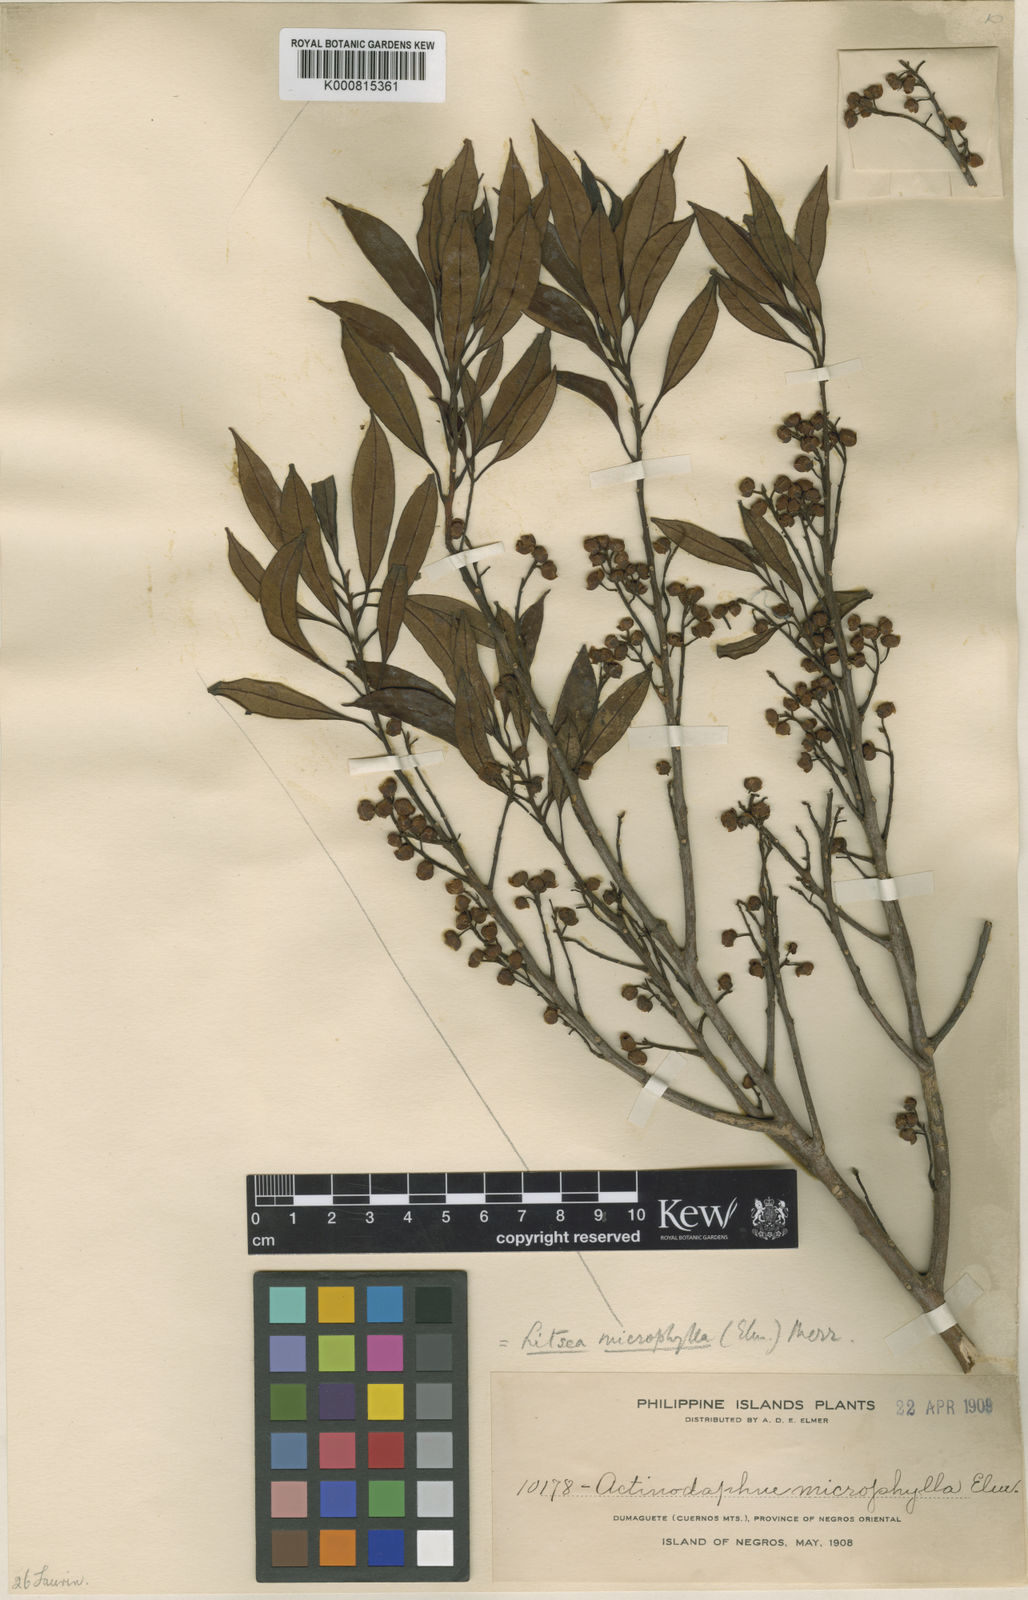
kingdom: Plantae
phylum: Tracheophyta
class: Magnoliopsida
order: Laurales
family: Lauraceae
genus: Litsea
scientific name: Litsea elmeriana
